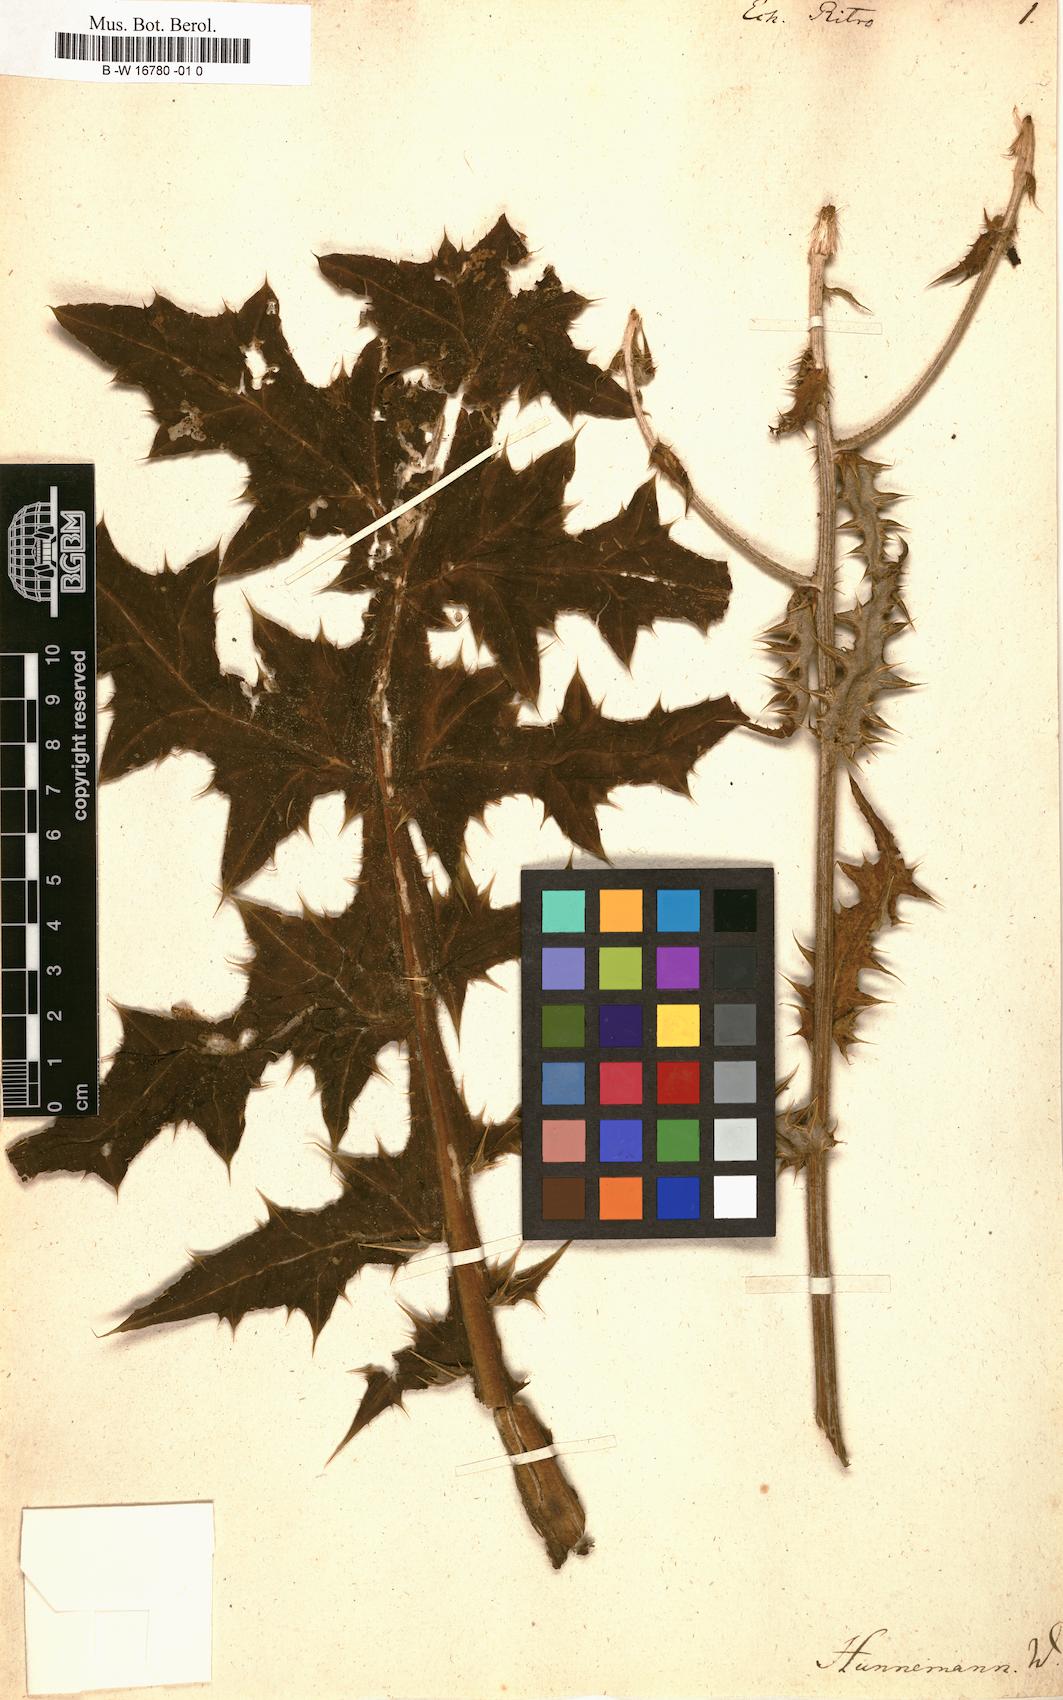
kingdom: Plantae
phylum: Tracheophyta
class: Magnoliopsida
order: Asterales
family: Asteraceae
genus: Echinops
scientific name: Echinops ritro
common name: Globe thistle
